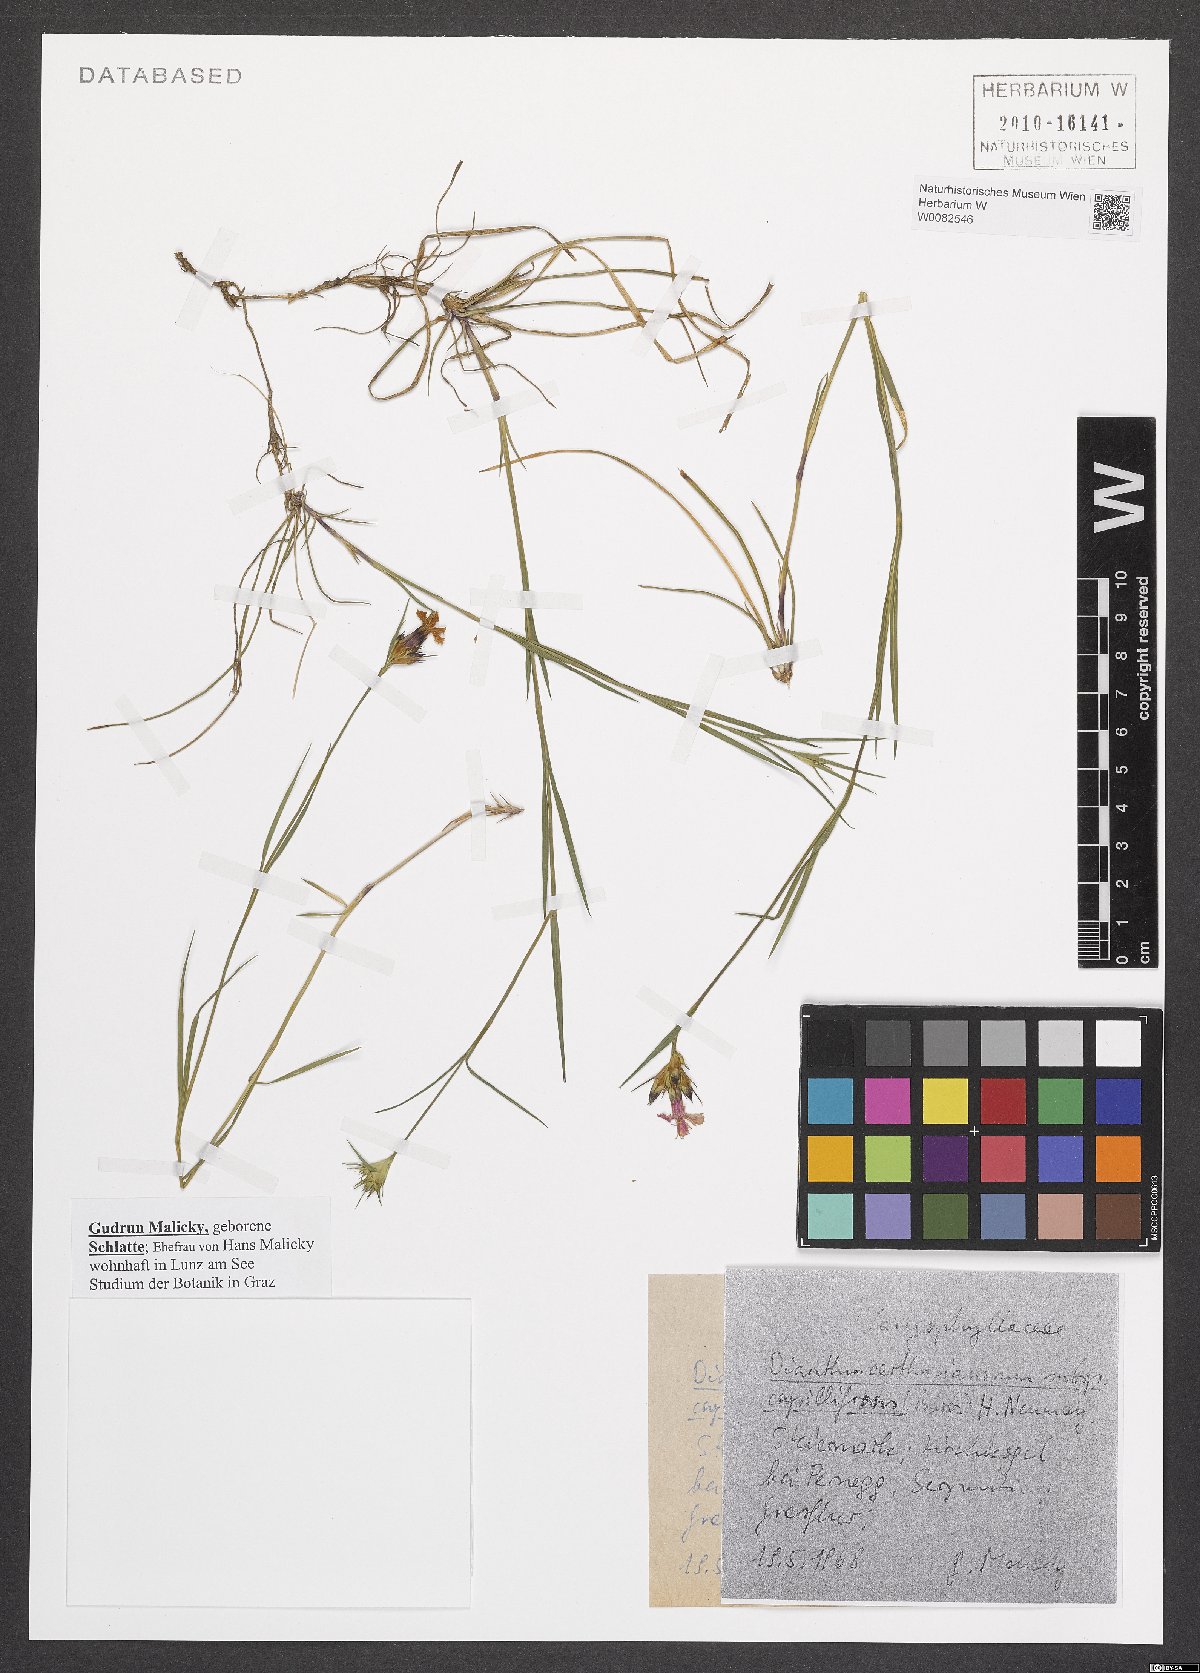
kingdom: Plantae
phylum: Tracheophyta
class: Magnoliopsida
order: Caryophyllales
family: Caryophyllaceae
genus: Dianthus
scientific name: Dianthus carthusianorum
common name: Carthusian pink
